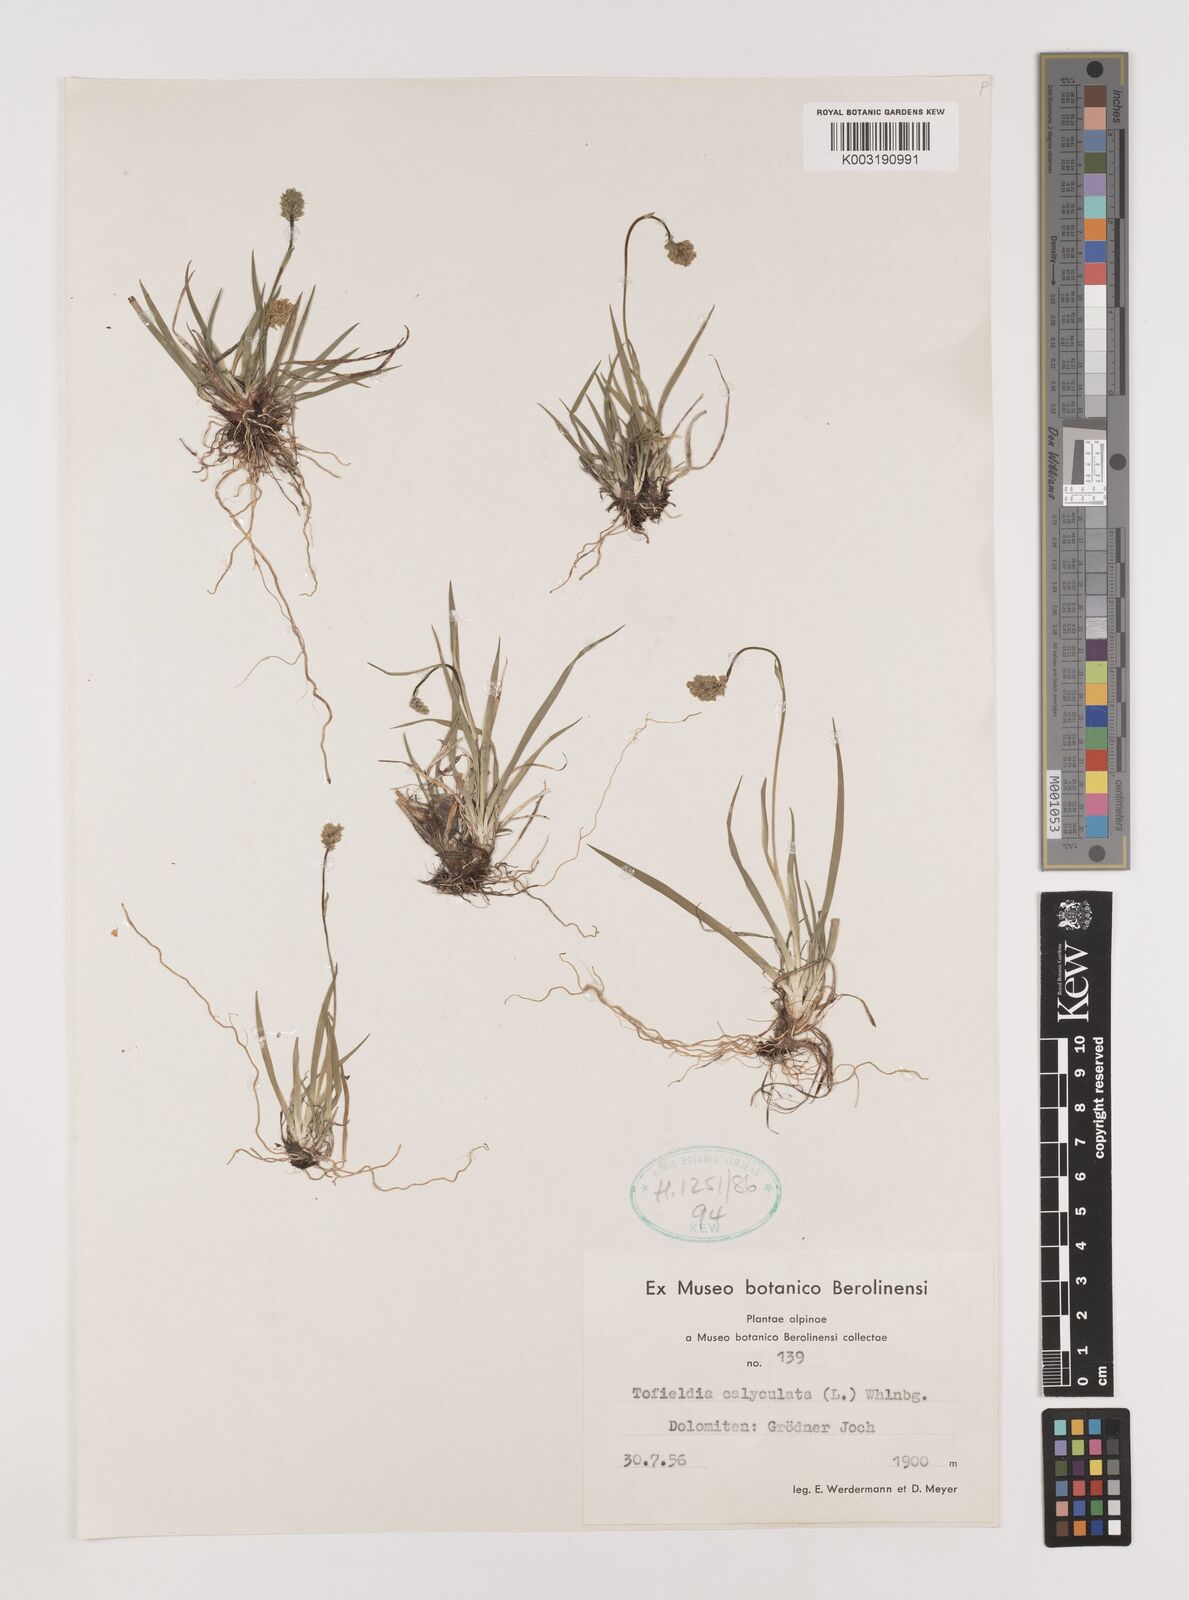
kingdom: Plantae
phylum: Tracheophyta
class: Liliopsida
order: Alismatales
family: Tofieldiaceae
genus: Tofieldia
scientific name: Tofieldia calyculata
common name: German-asphodel
